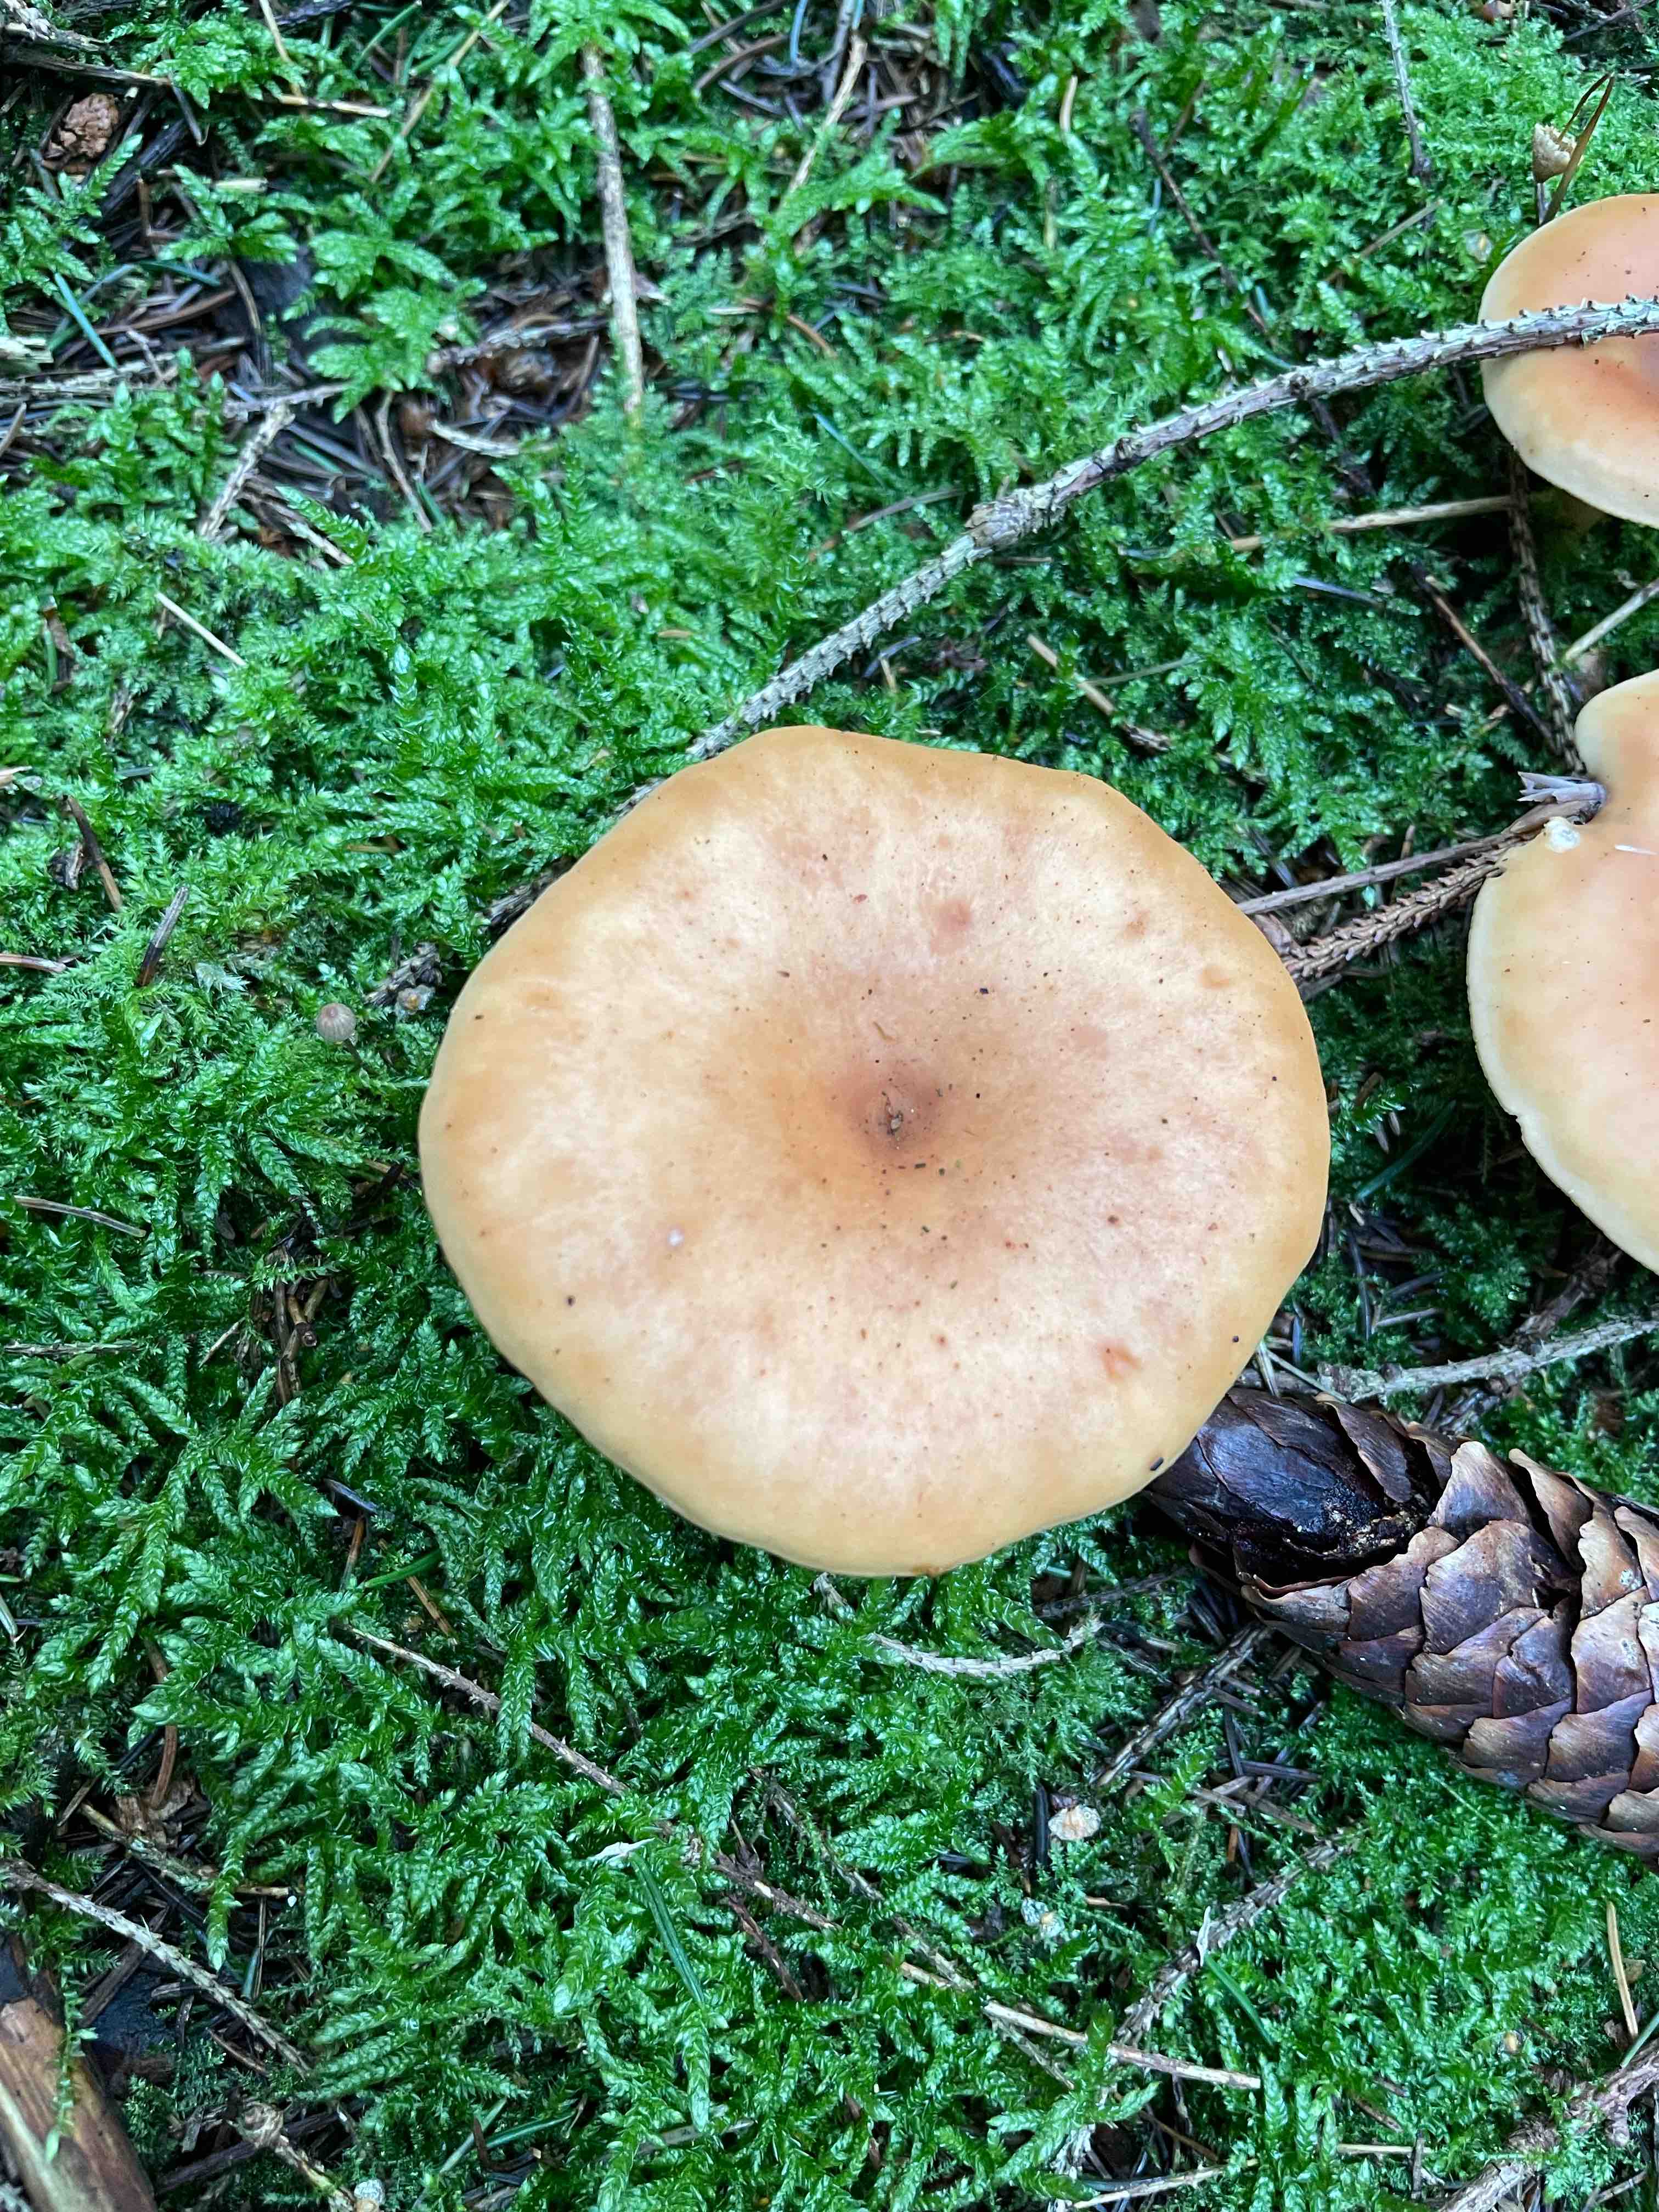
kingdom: Fungi
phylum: Basidiomycota
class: Agaricomycetes
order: Agaricales
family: Tricholomataceae
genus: Paralepista
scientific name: Paralepista flaccida
